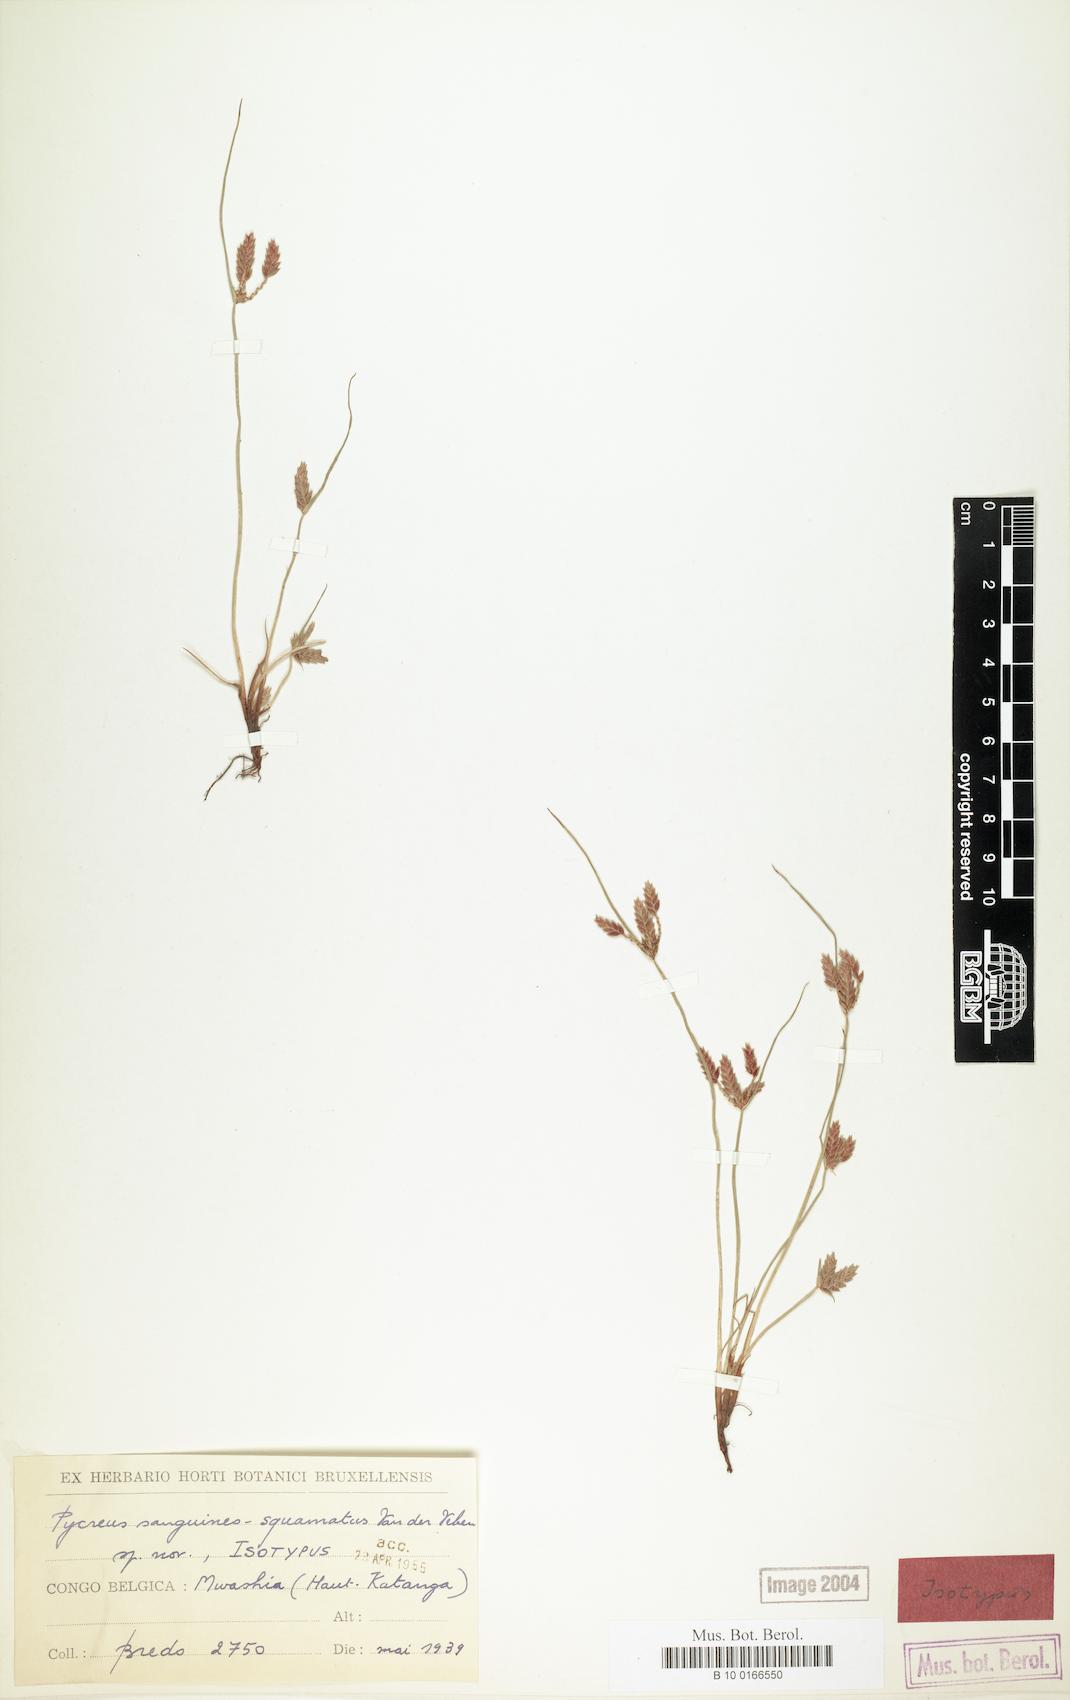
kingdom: Plantae
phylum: Tracheophyta
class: Liliopsida
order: Poales
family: Cyperaceae
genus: Cyperus
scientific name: Cyperus
